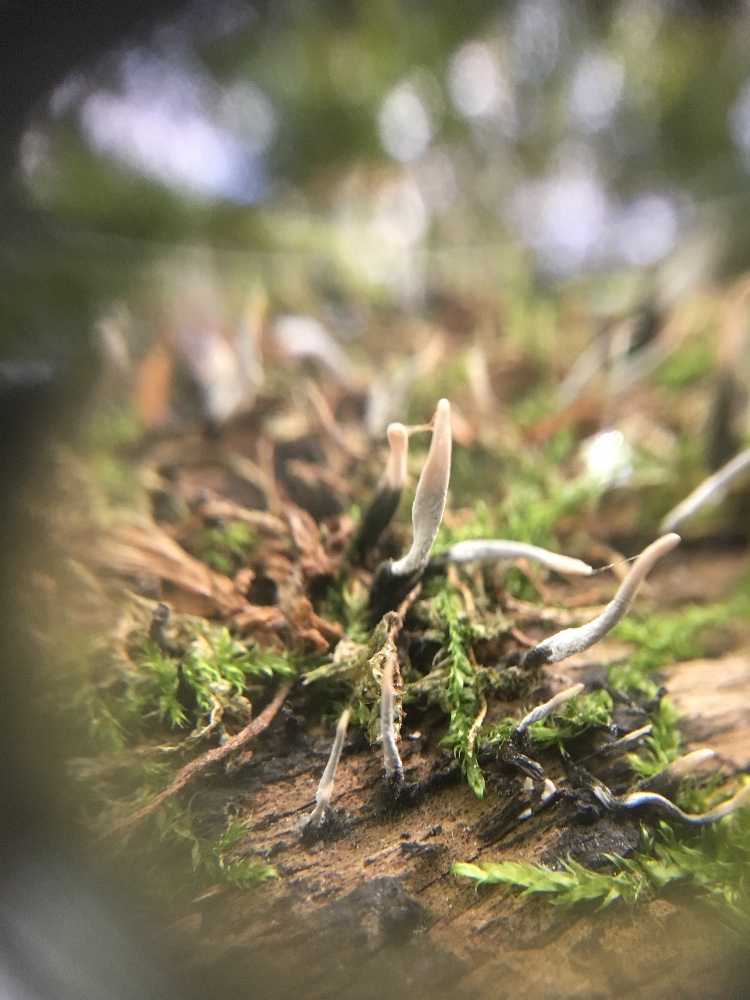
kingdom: Fungi
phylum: Ascomycota
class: Sordariomycetes
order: Xylariales
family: Xylariaceae
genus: Xylaria
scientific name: Xylaria hypoxylon
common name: grenet stødsvamp
